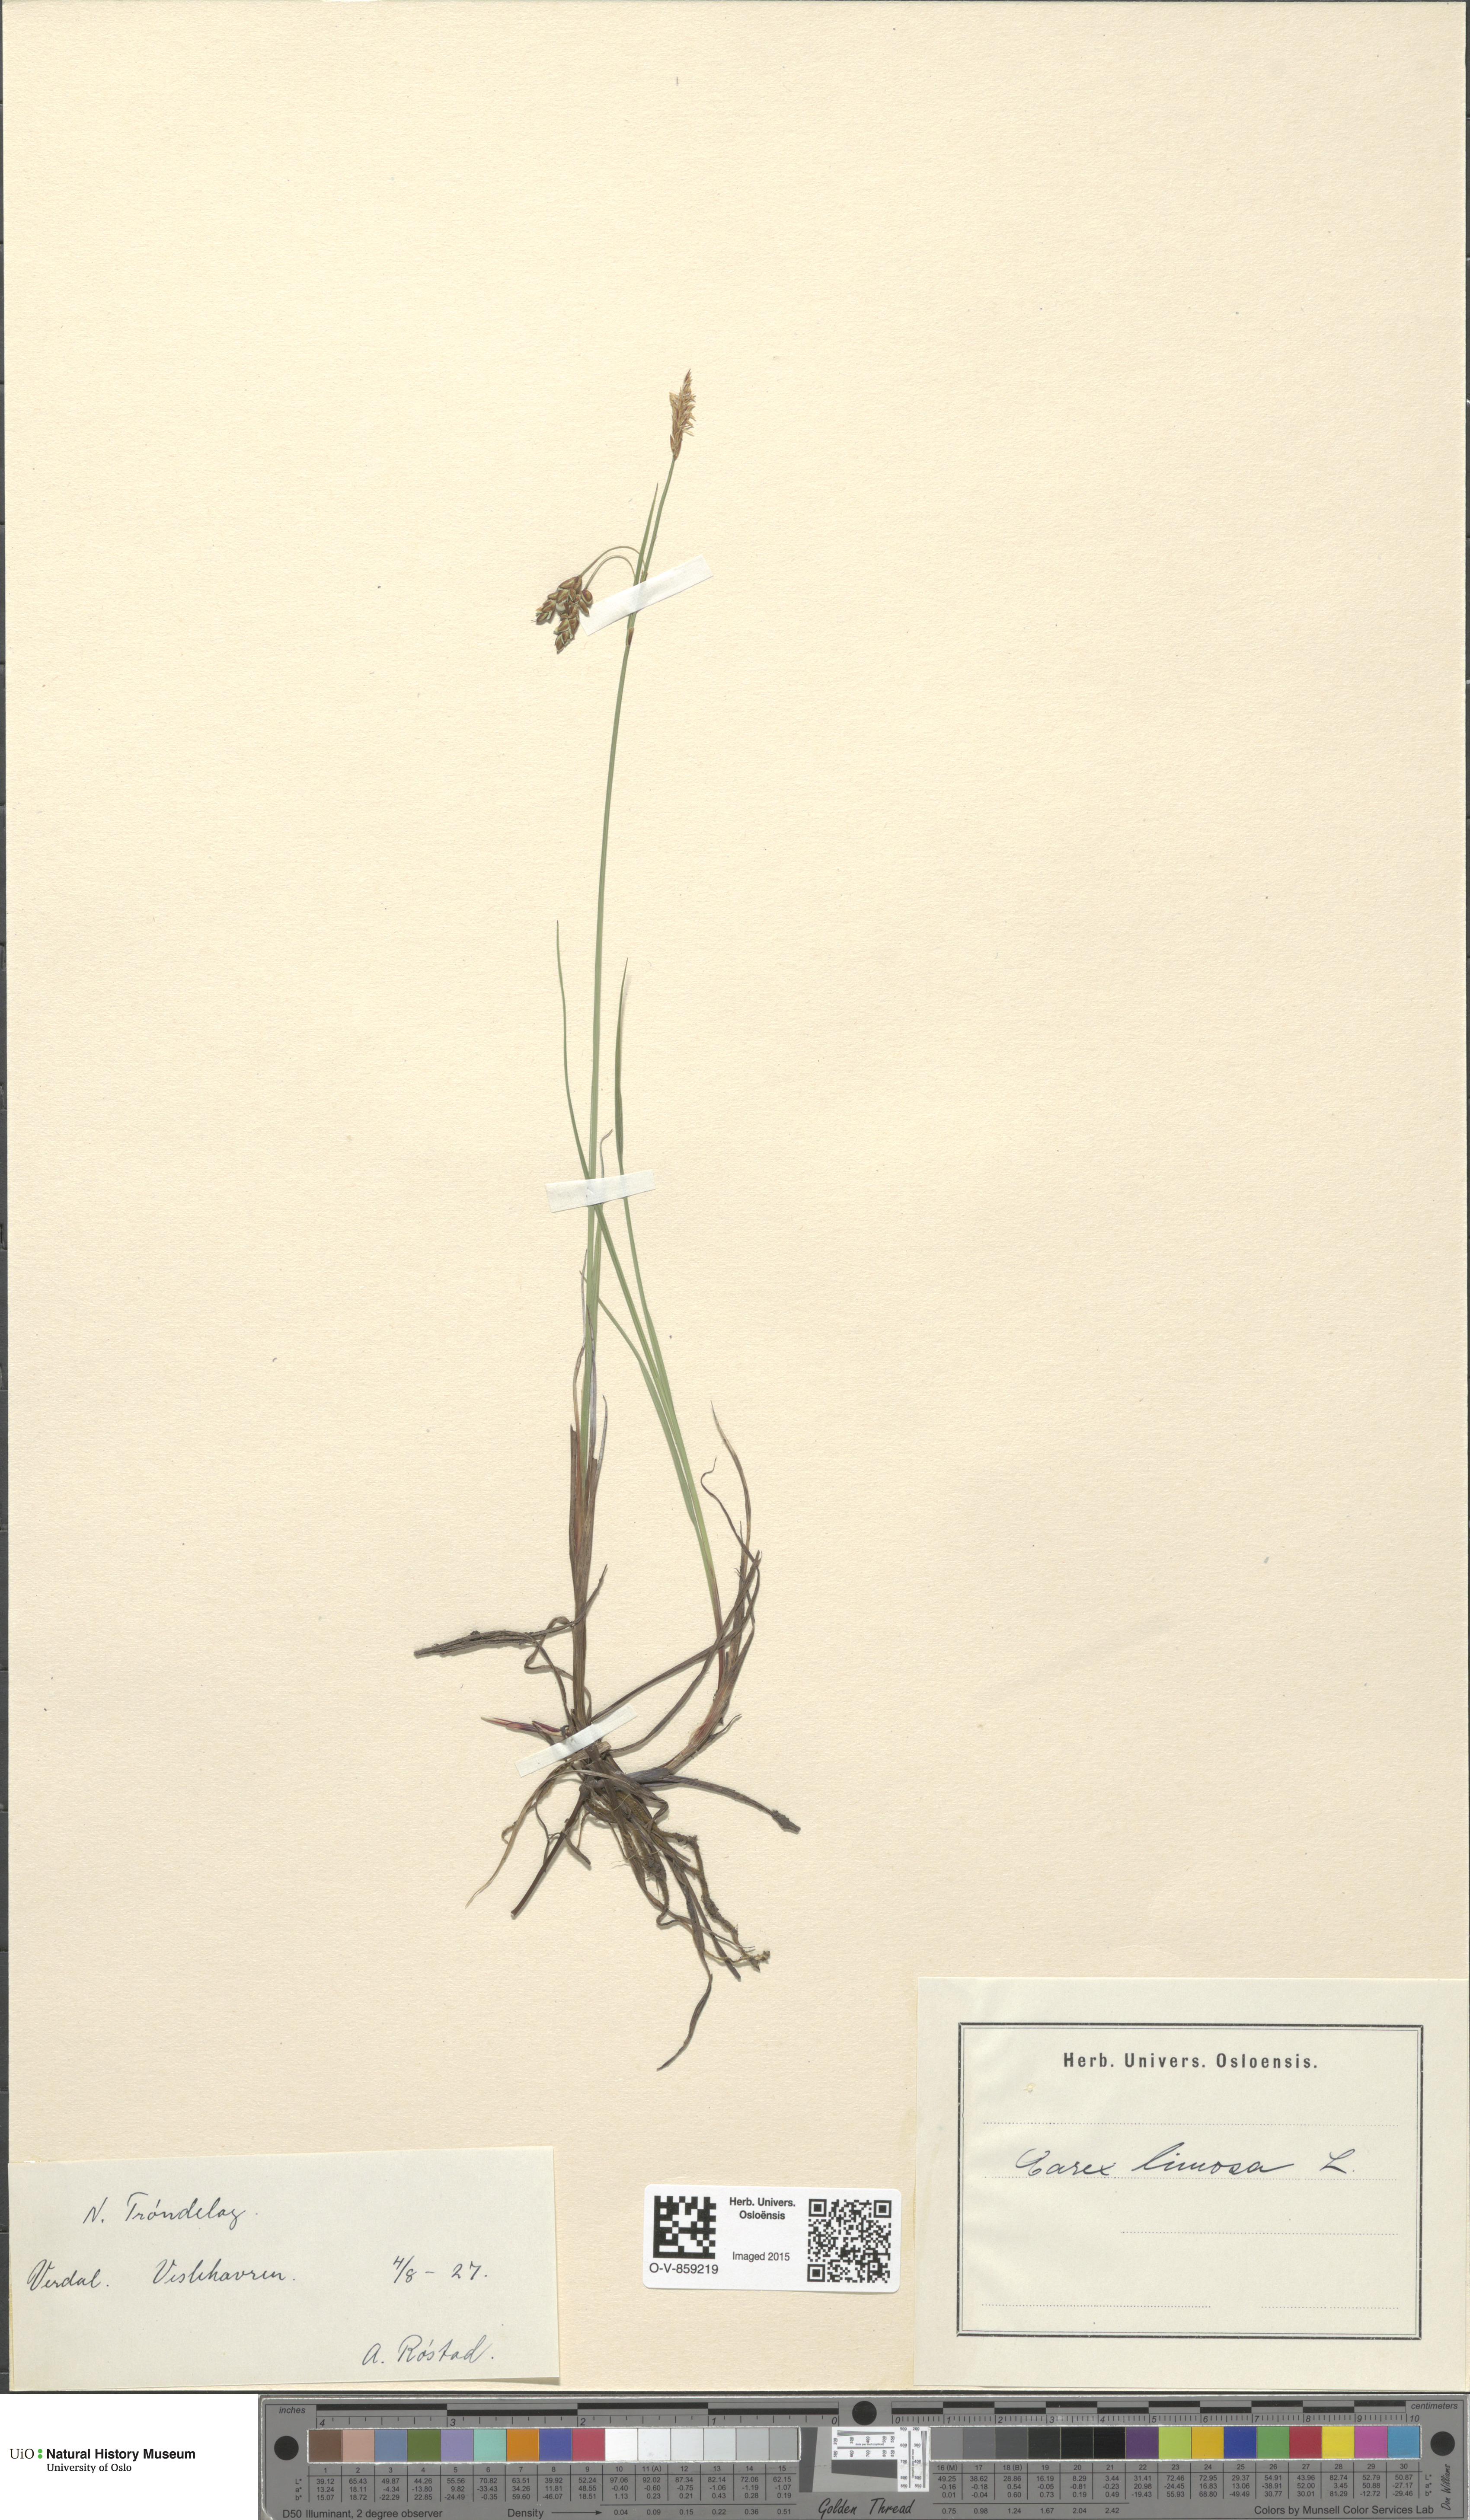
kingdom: Plantae
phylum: Tracheophyta
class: Liliopsida
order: Poales
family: Cyperaceae
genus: Carex
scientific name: Carex limosa
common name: Bog sedge
